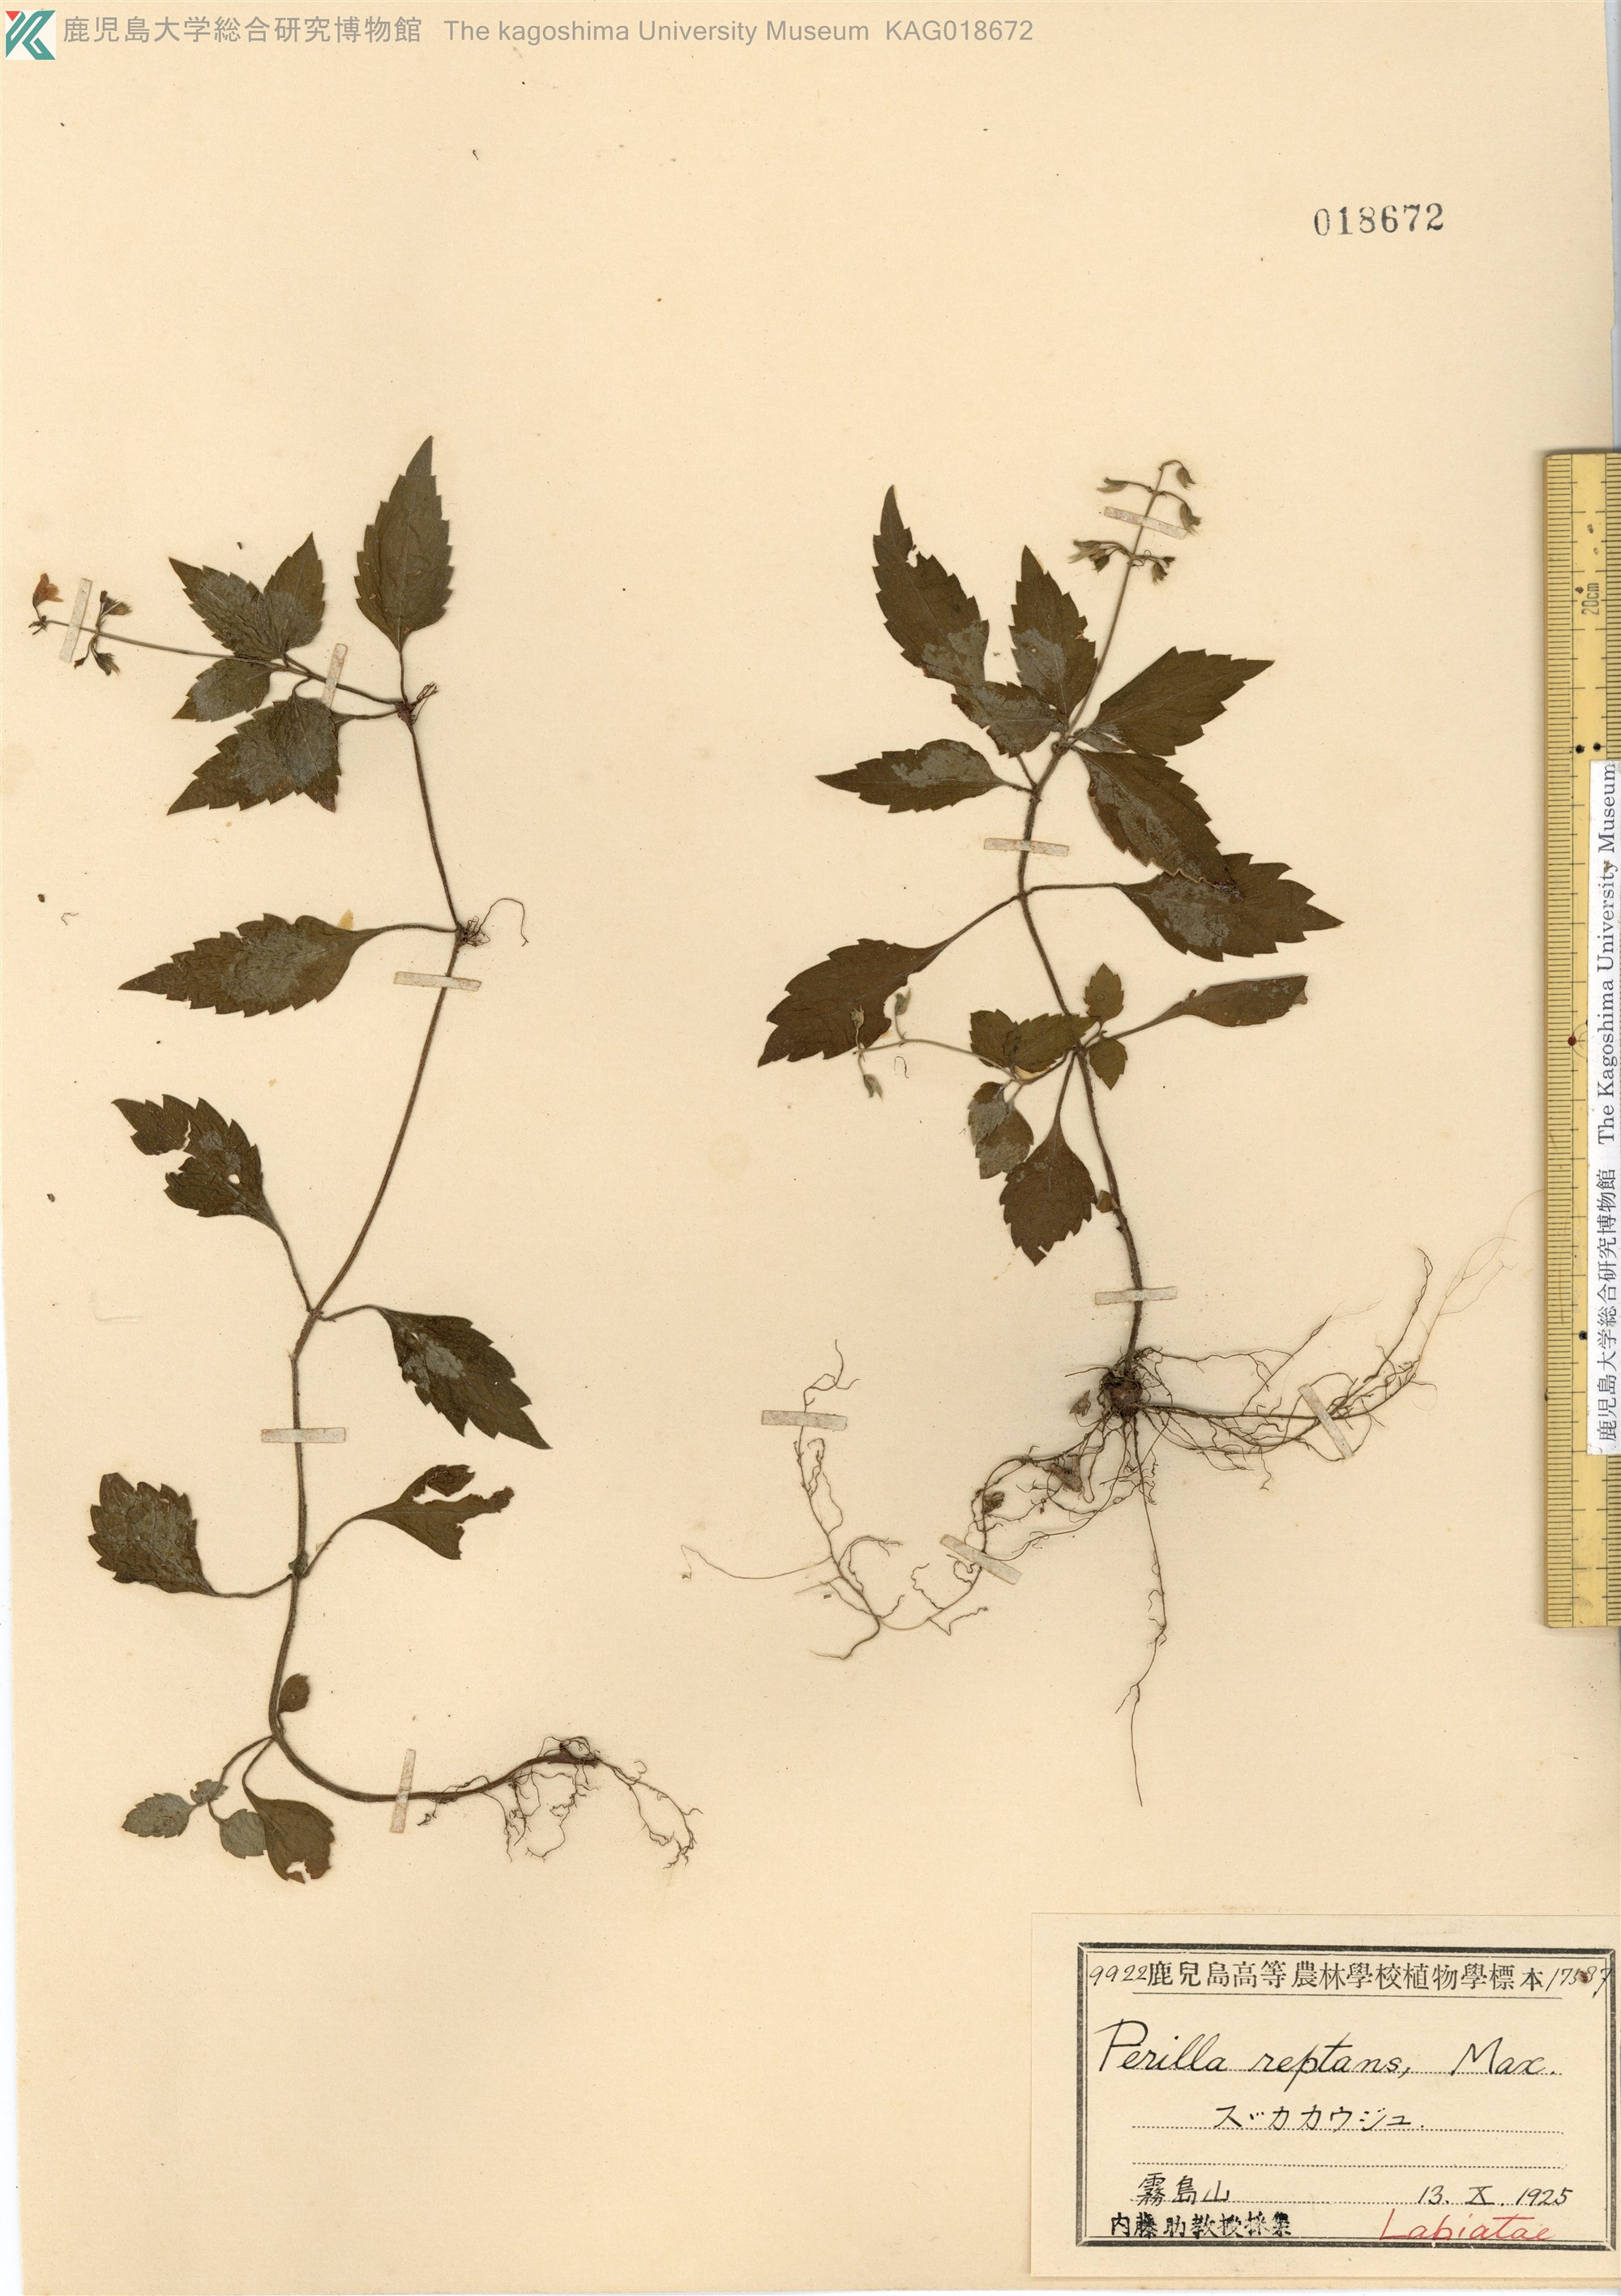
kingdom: Plantae
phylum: Tracheophyta
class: Magnoliopsida
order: Lamiales
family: Lamiaceae
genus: Perillula
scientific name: Perillula reptans
